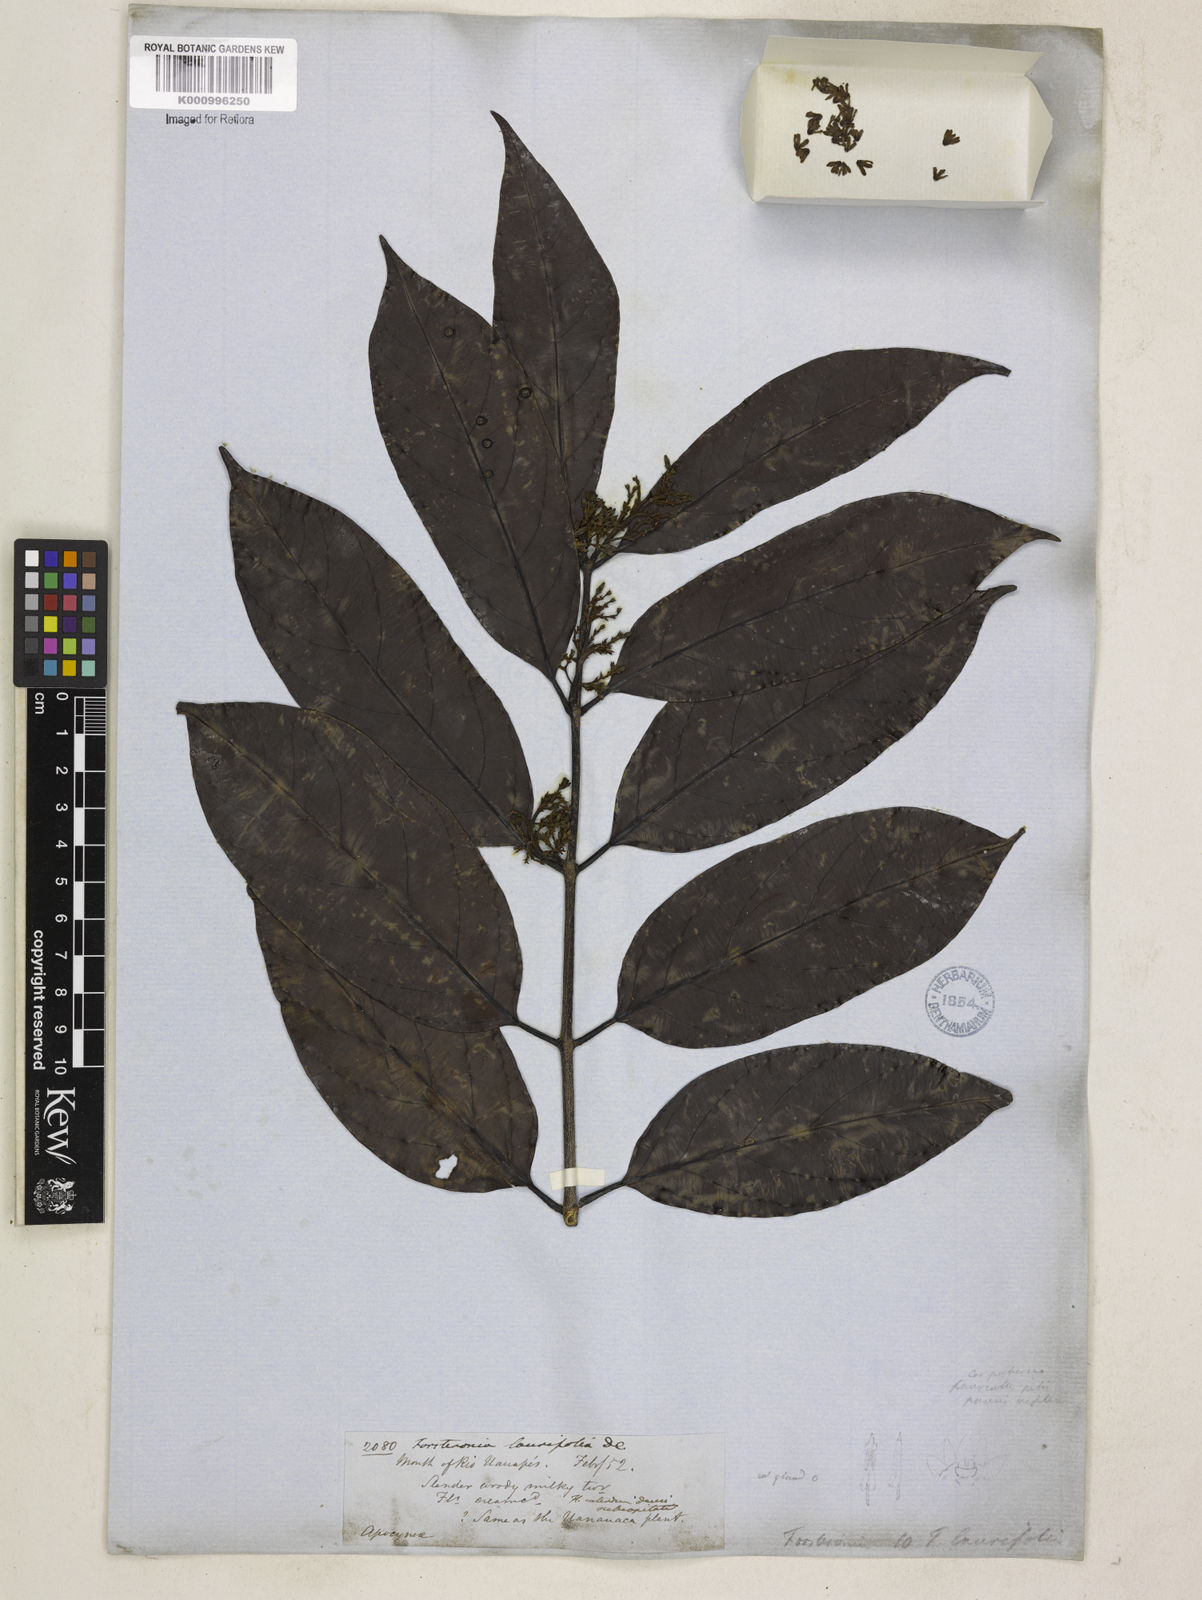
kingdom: Plantae
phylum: Tracheophyta
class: Magnoliopsida
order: Gentianales
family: Apocynaceae
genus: Forsteronia
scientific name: Forsteronia laurifolia
